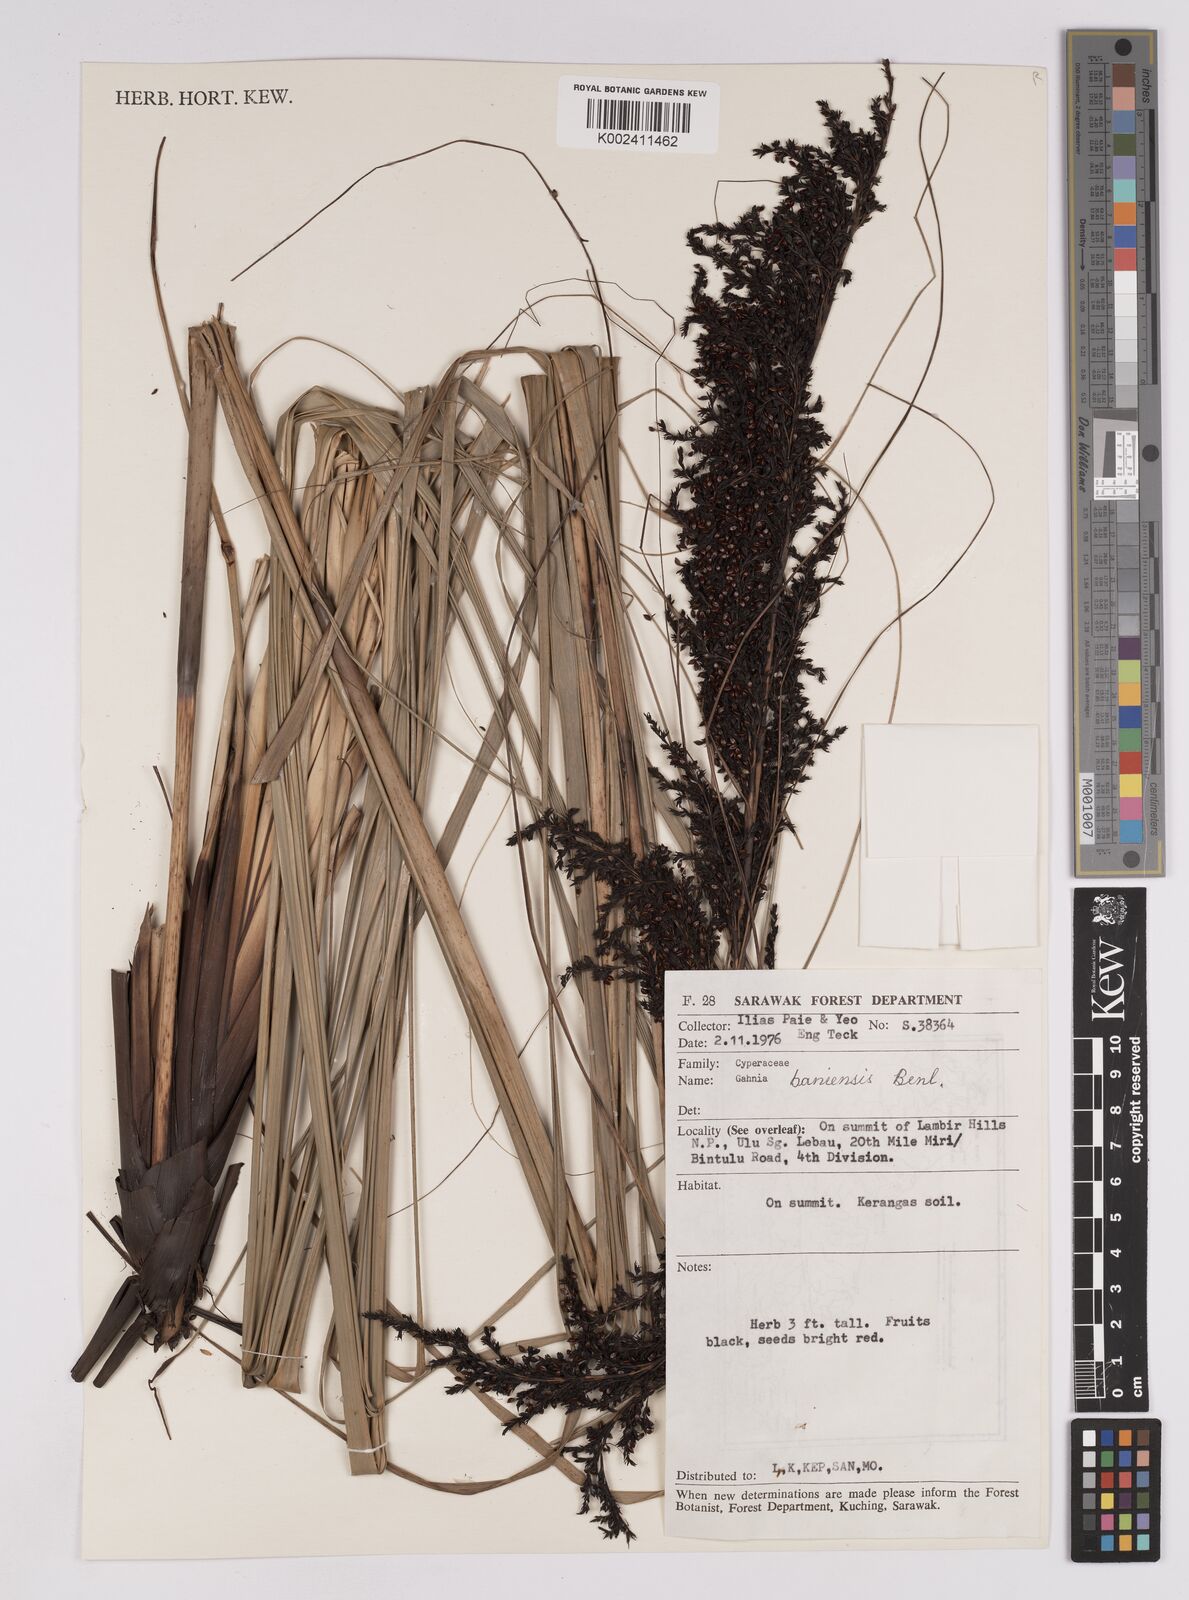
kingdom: Plantae
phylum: Tracheophyta
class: Liliopsida
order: Poales
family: Cyperaceae
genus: Gahnia
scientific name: Gahnia baniensis
